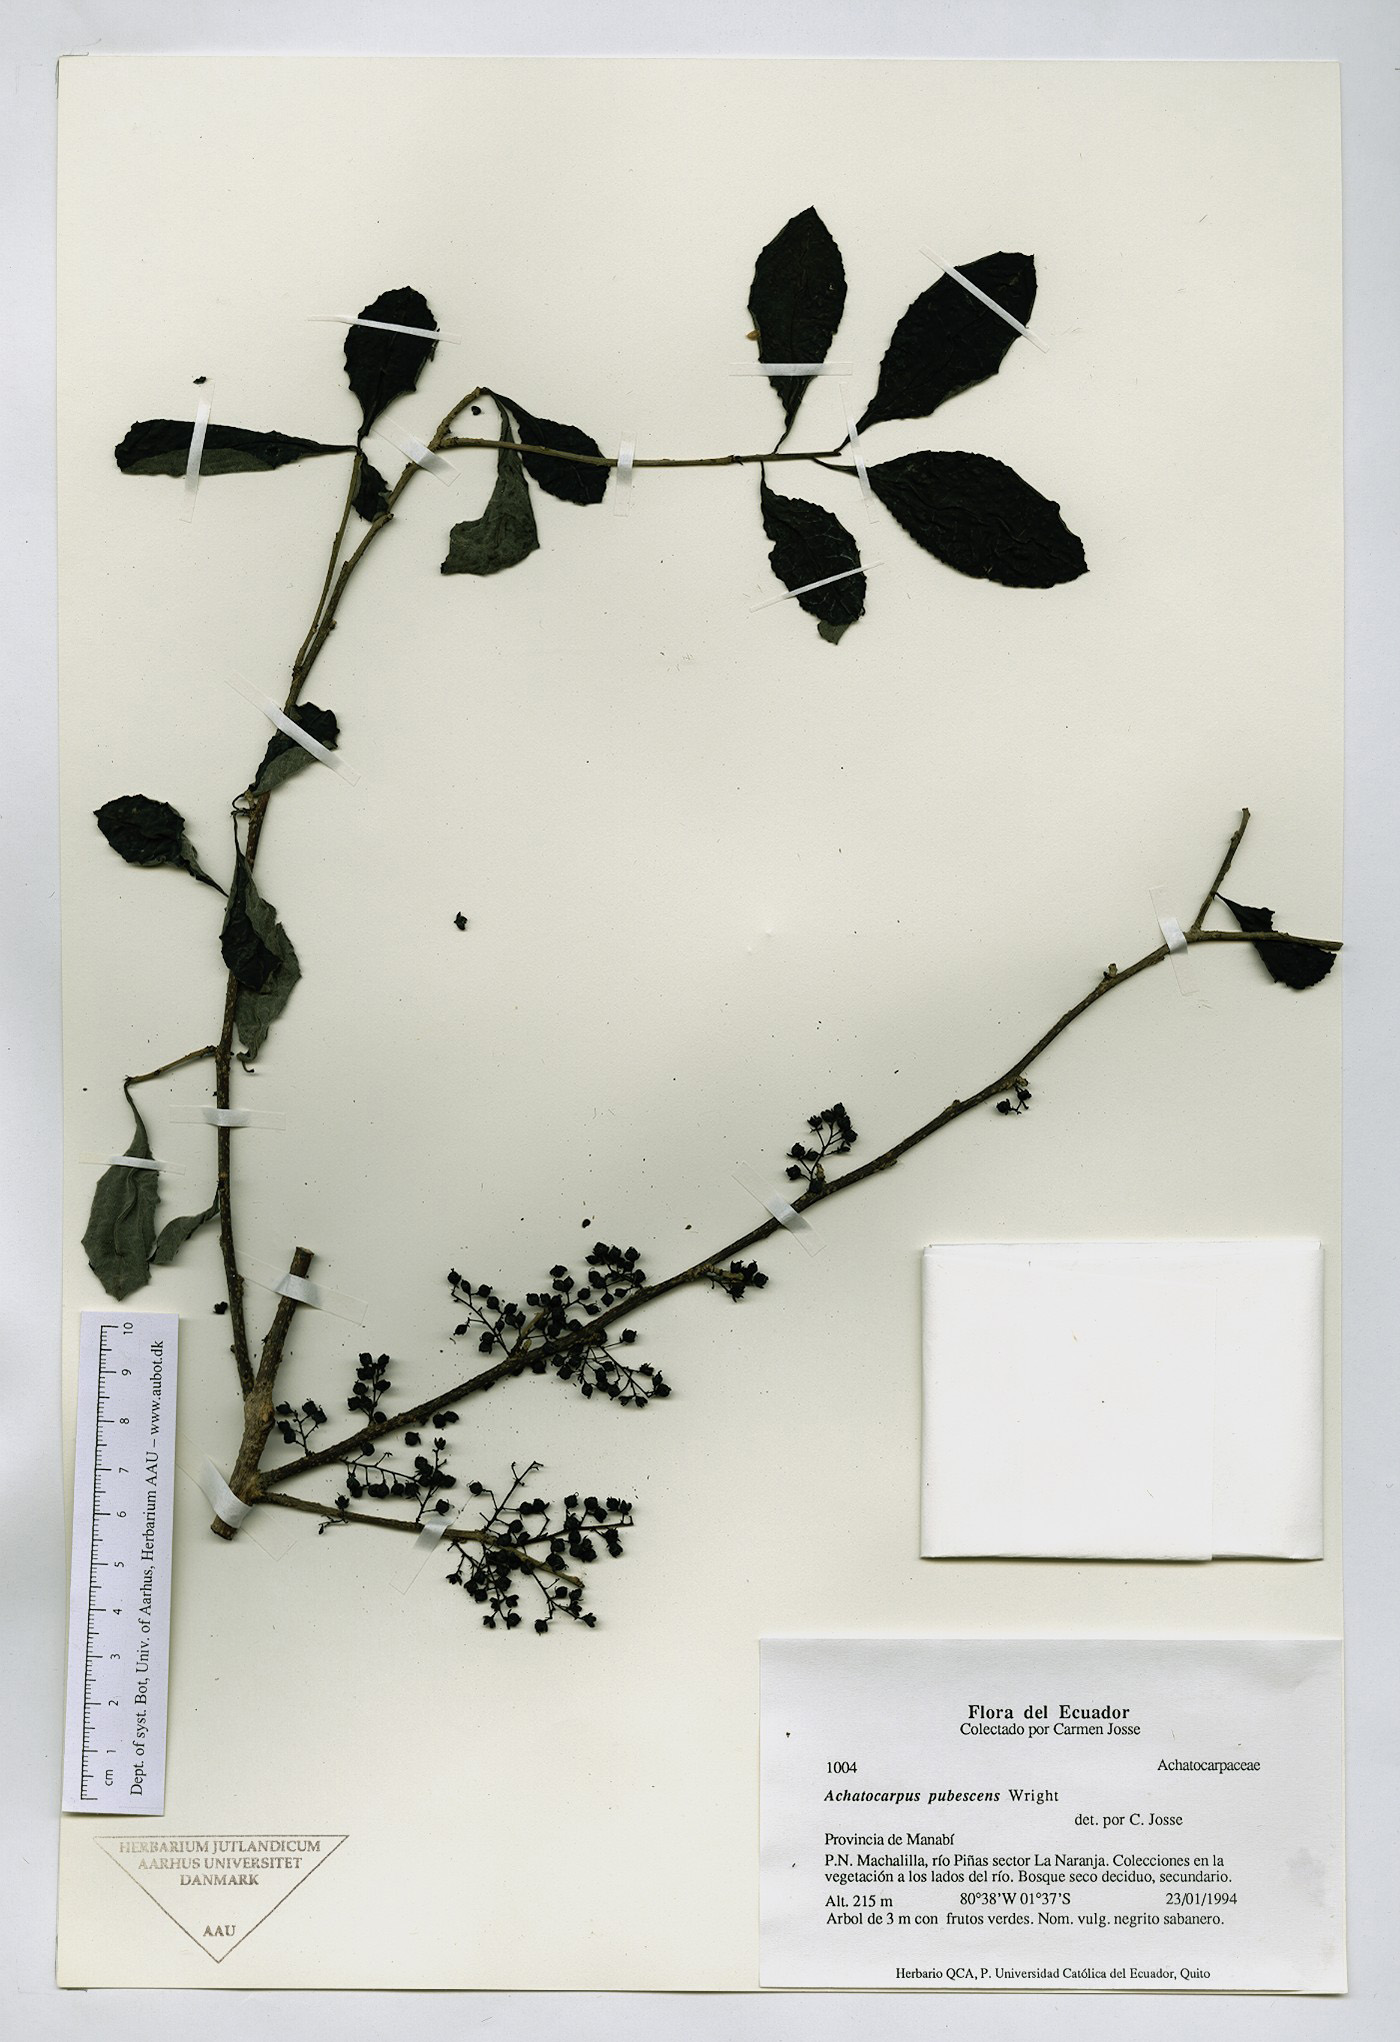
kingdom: Plantae
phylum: Tracheophyta
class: Magnoliopsida
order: Caryophyllales
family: Achatocarpaceae
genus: Achatocarpus
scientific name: Achatocarpus pubescens
